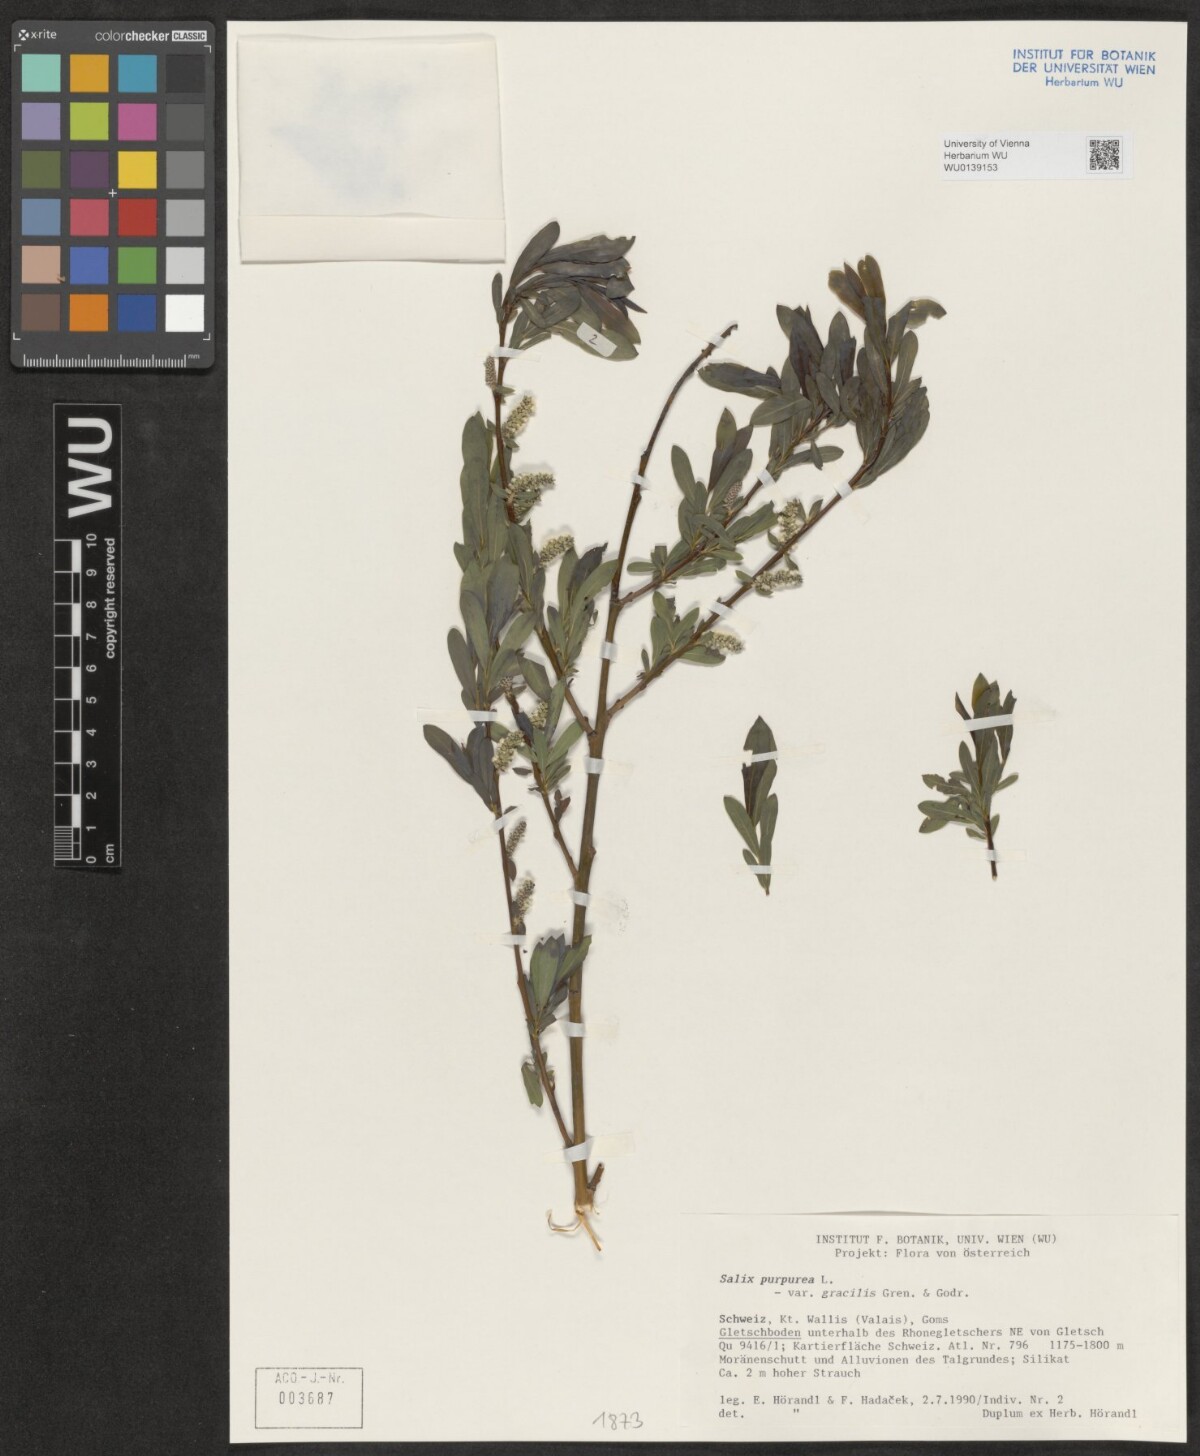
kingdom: Plantae
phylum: Tracheophyta
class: Magnoliopsida
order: Malpighiales
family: Salicaceae
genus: Salix
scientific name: Salix purpurea
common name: Purple willow
